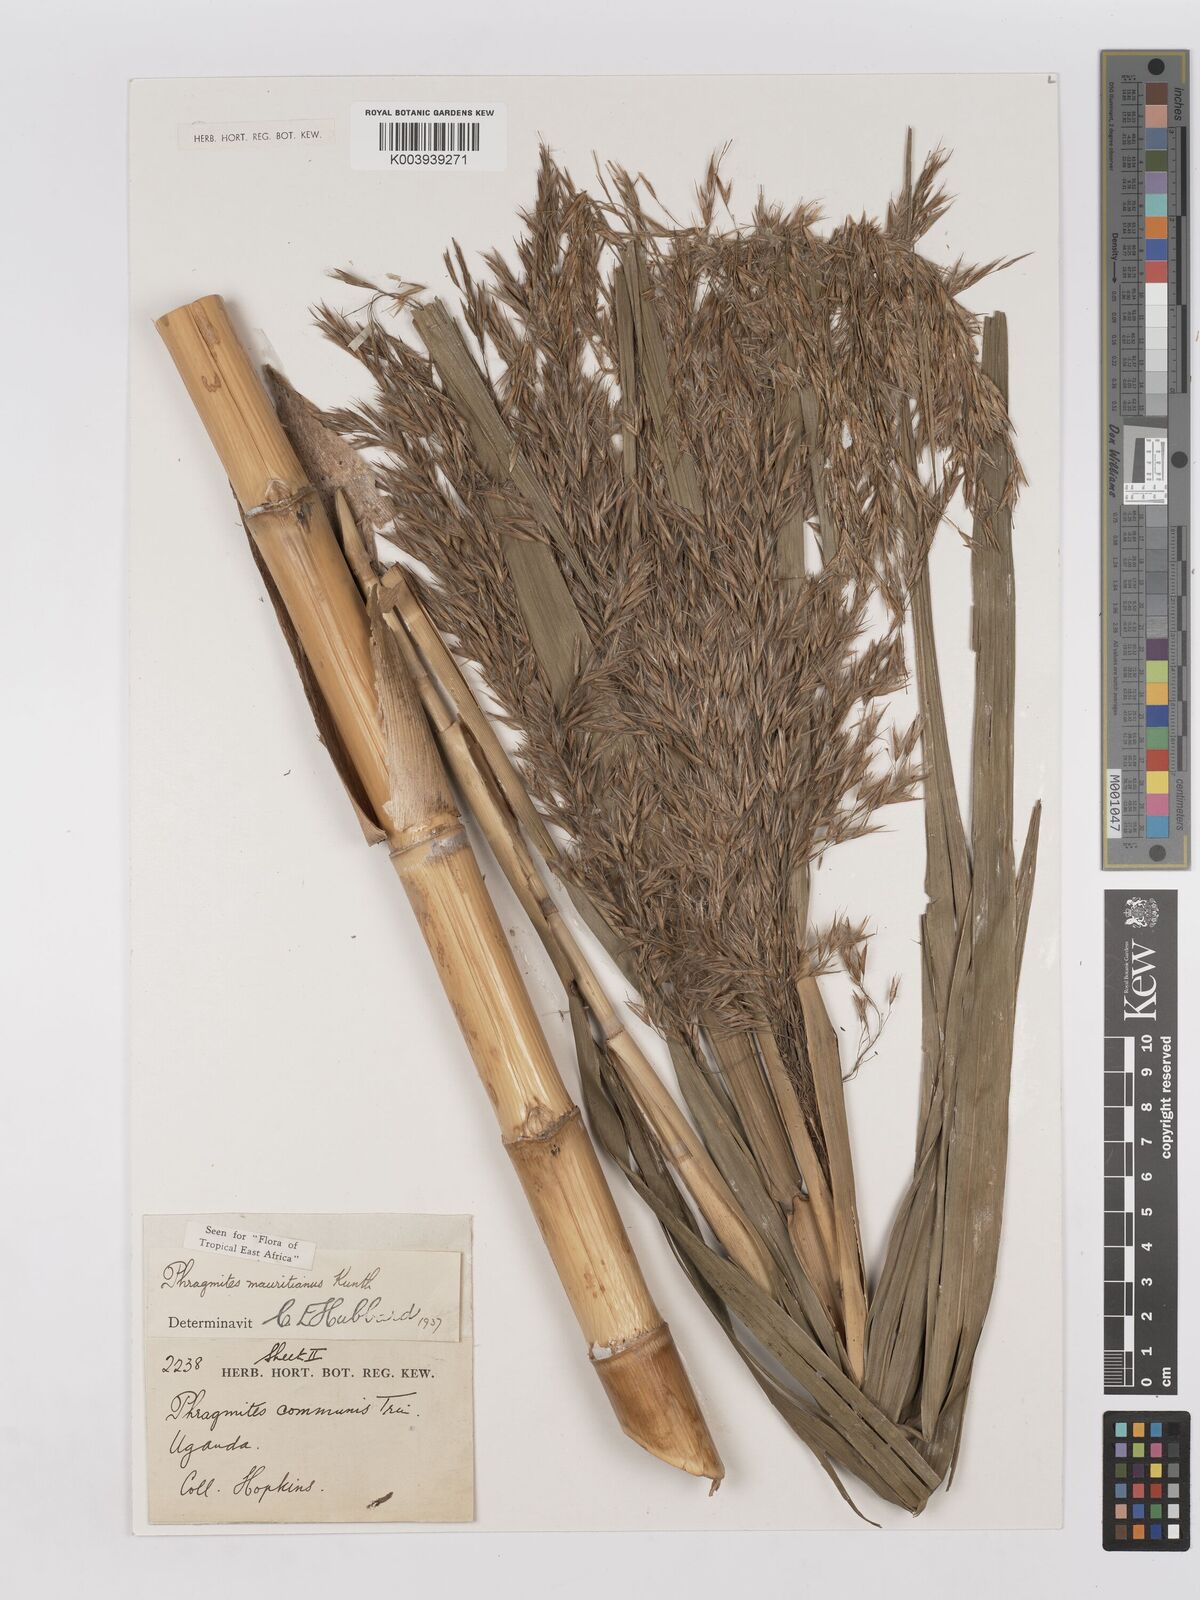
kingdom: Plantae
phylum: Tracheophyta
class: Liliopsida
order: Poales
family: Poaceae
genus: Phragmites
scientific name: Phragmites mauritianus
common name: Reed grass
